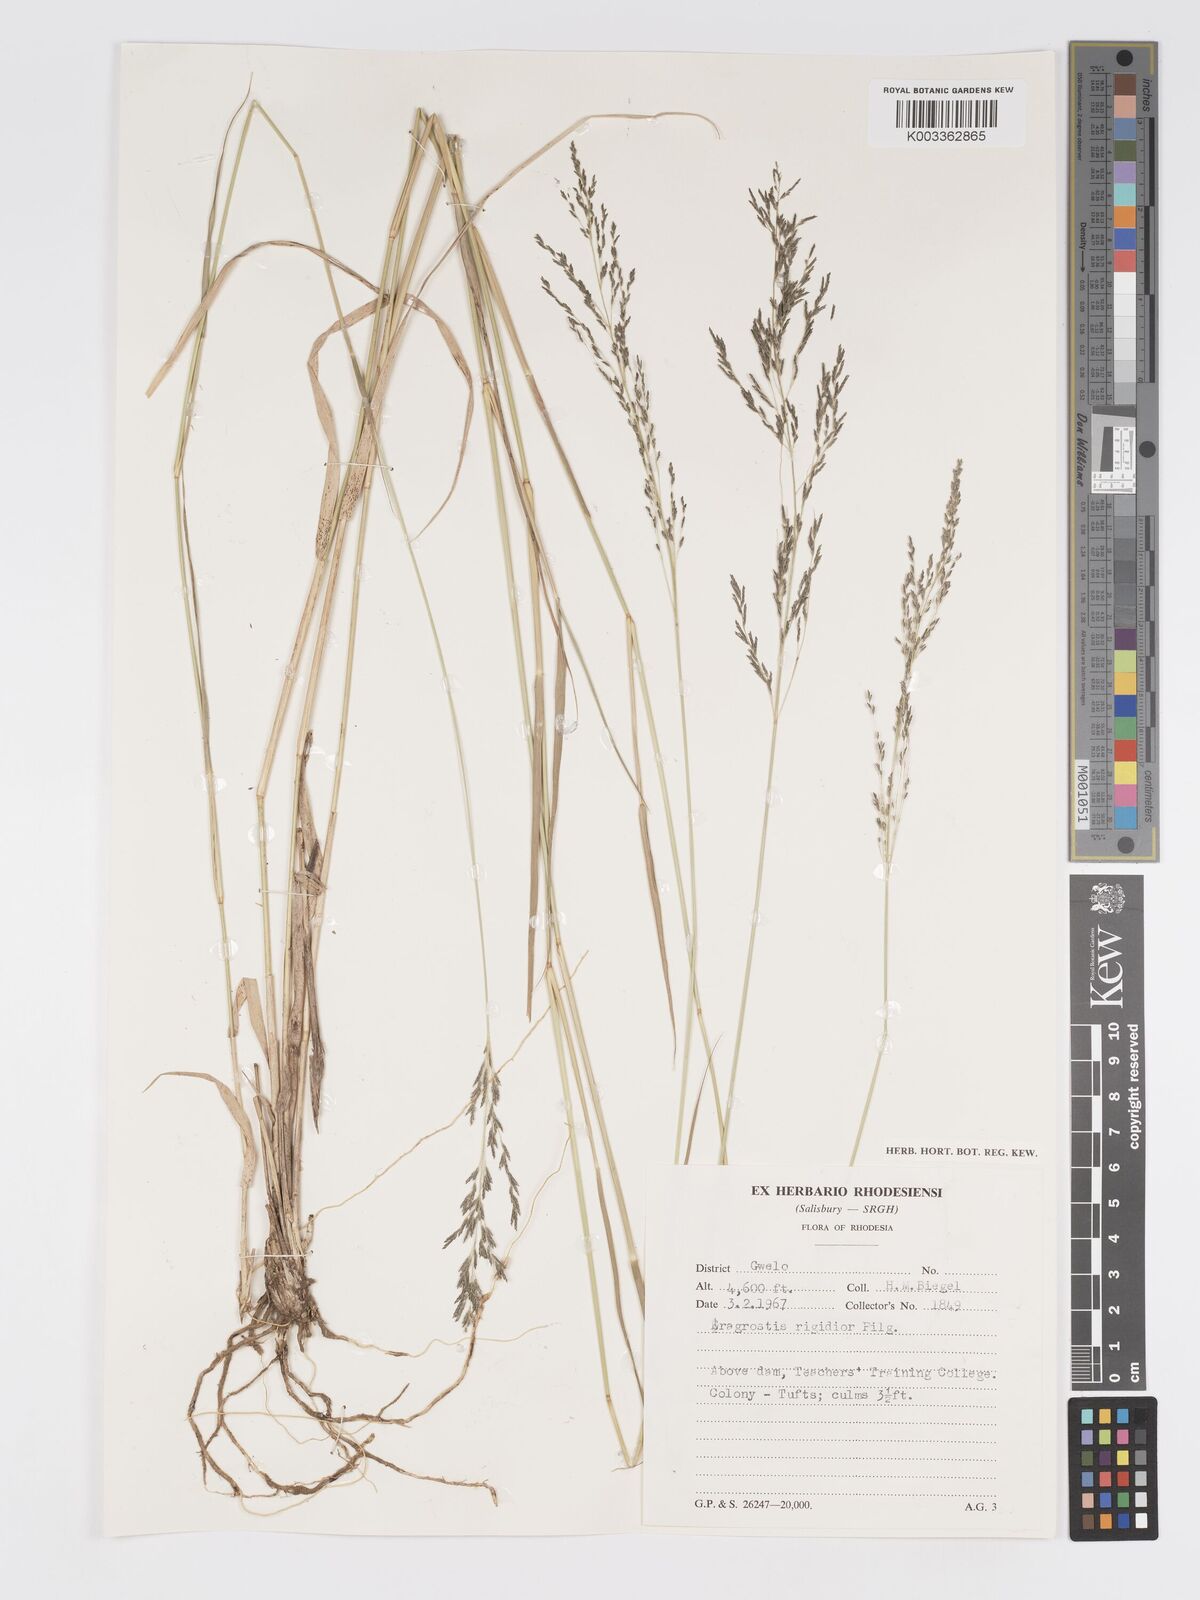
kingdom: Plantae
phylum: Tracheophyta
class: Liliopsida
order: Poales
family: Poaceae
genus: Eragrostis
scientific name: Eragrostis cylindriflora
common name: Cylinderflower lovegrass
